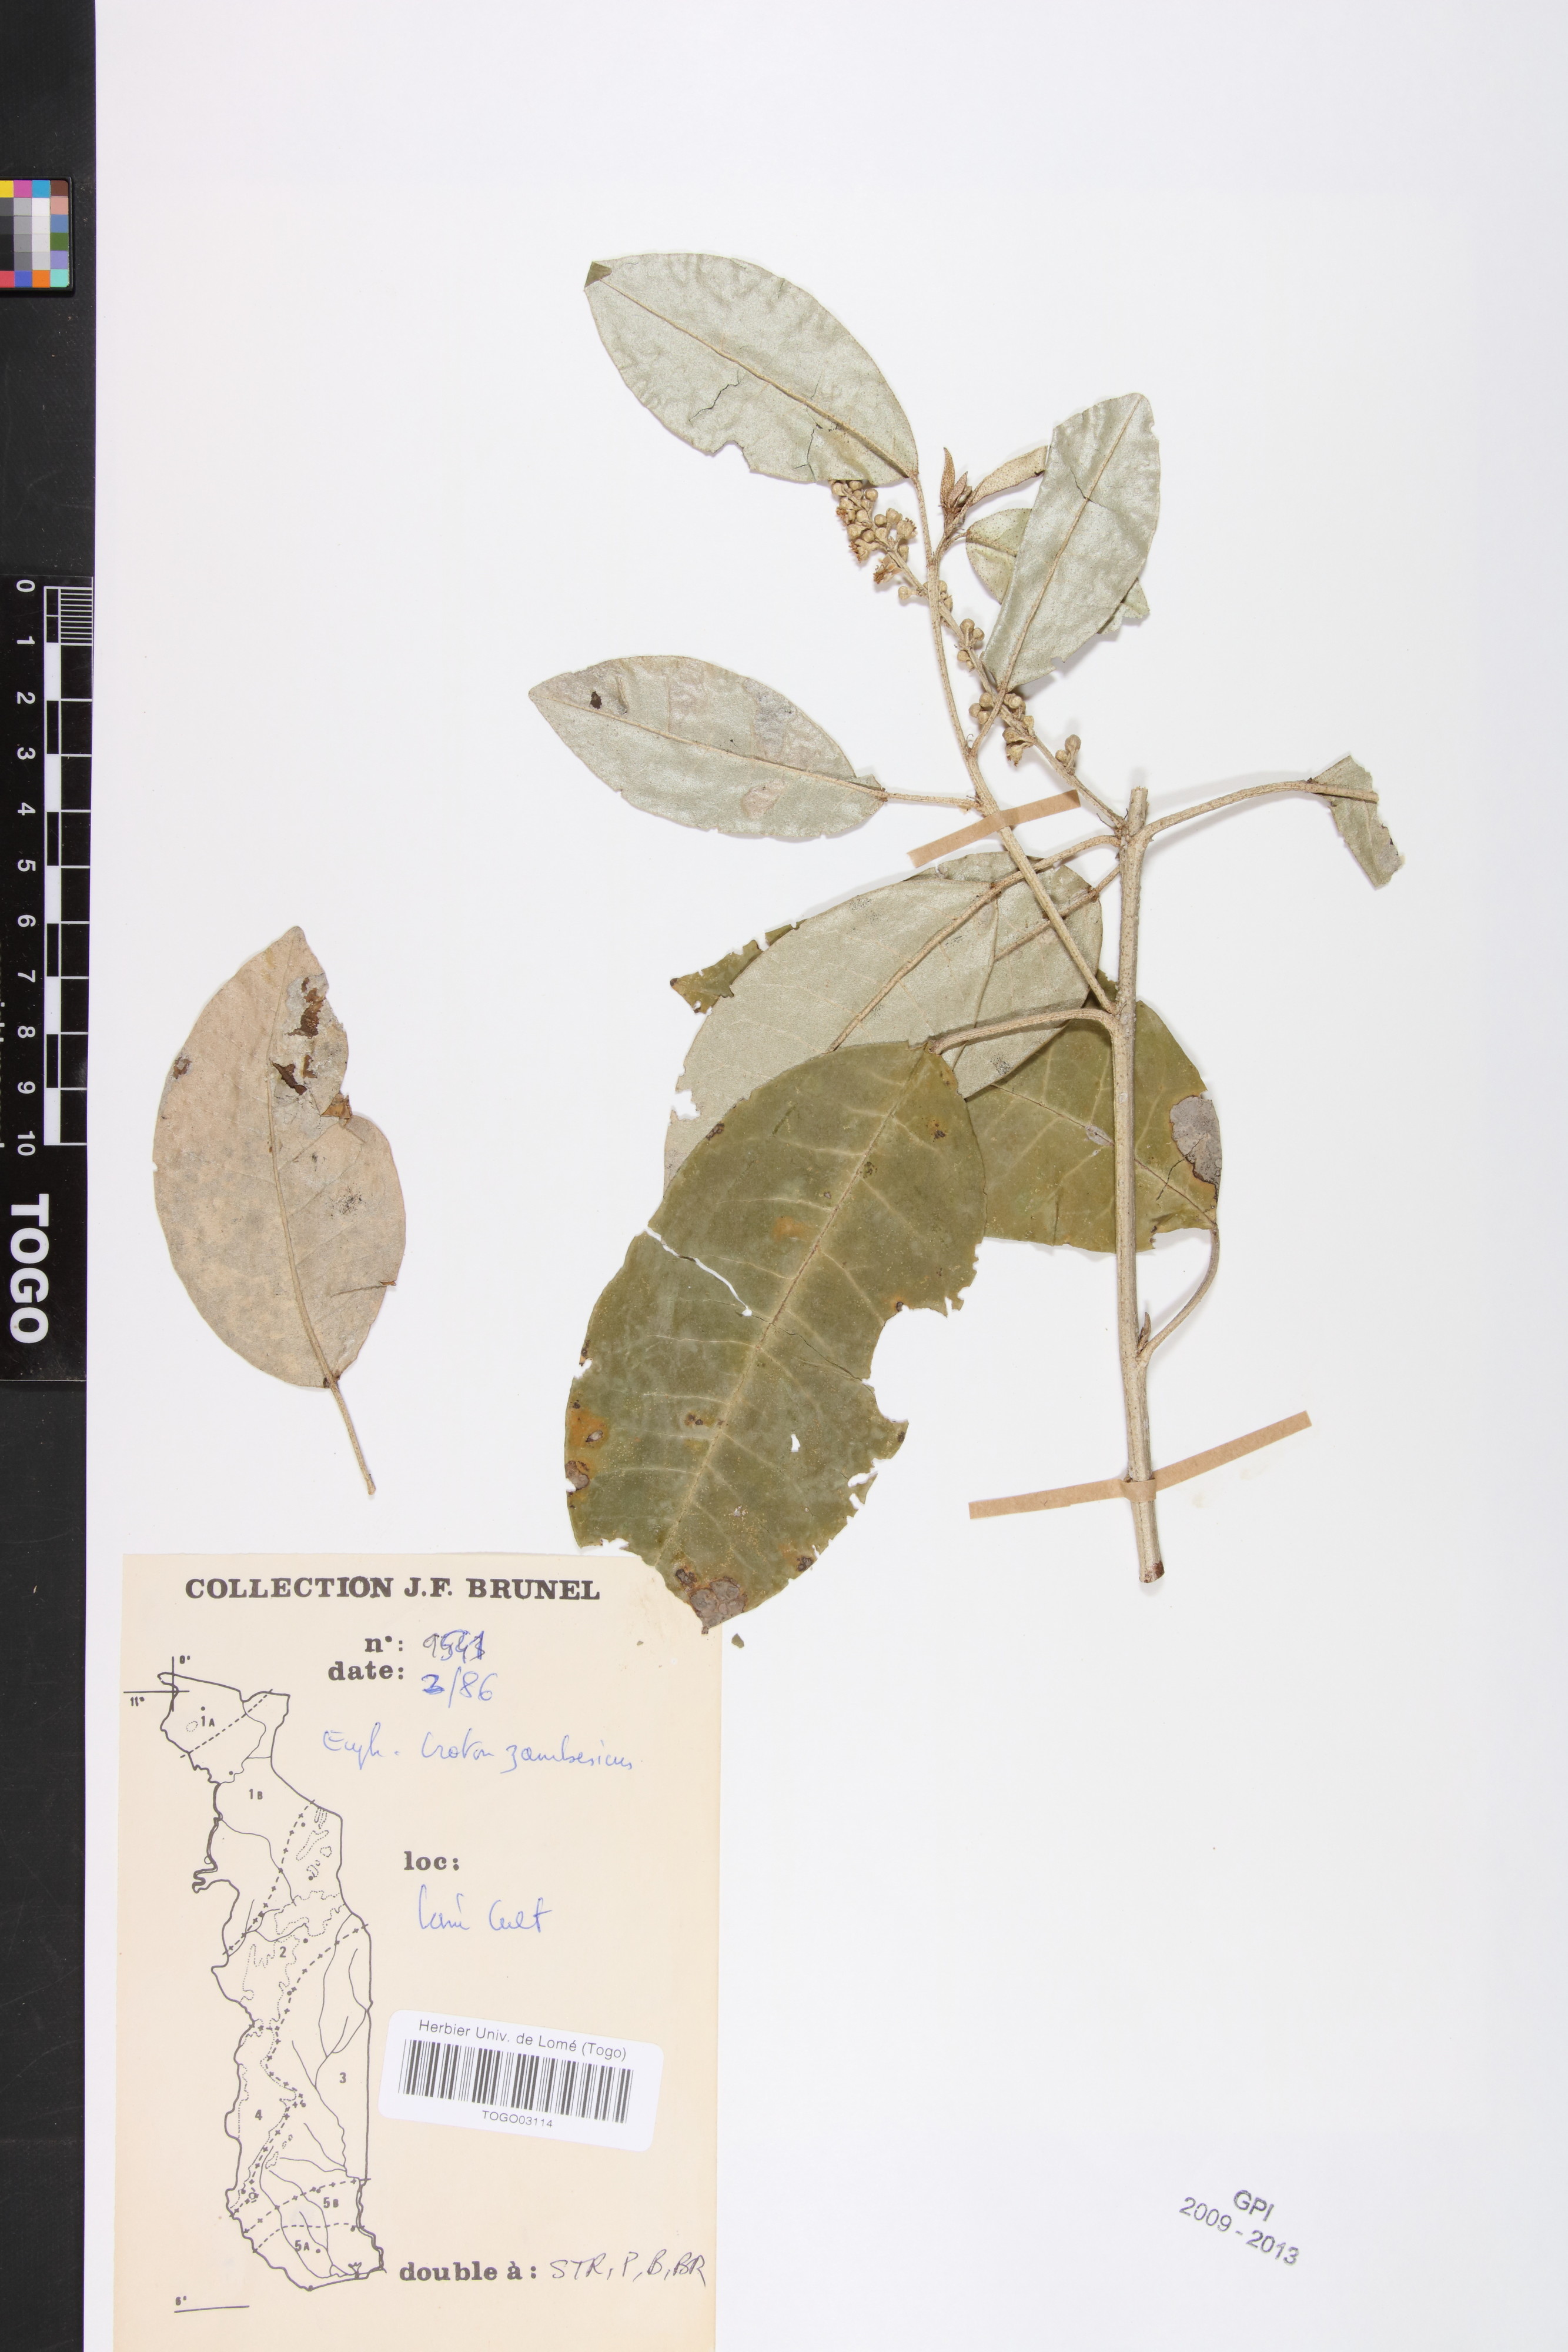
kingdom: Plantae
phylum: Tracheophyta
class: Magnoliopsida
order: Malpighiales
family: Euphorbiaceae
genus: Croton
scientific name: Croton gratissimus
